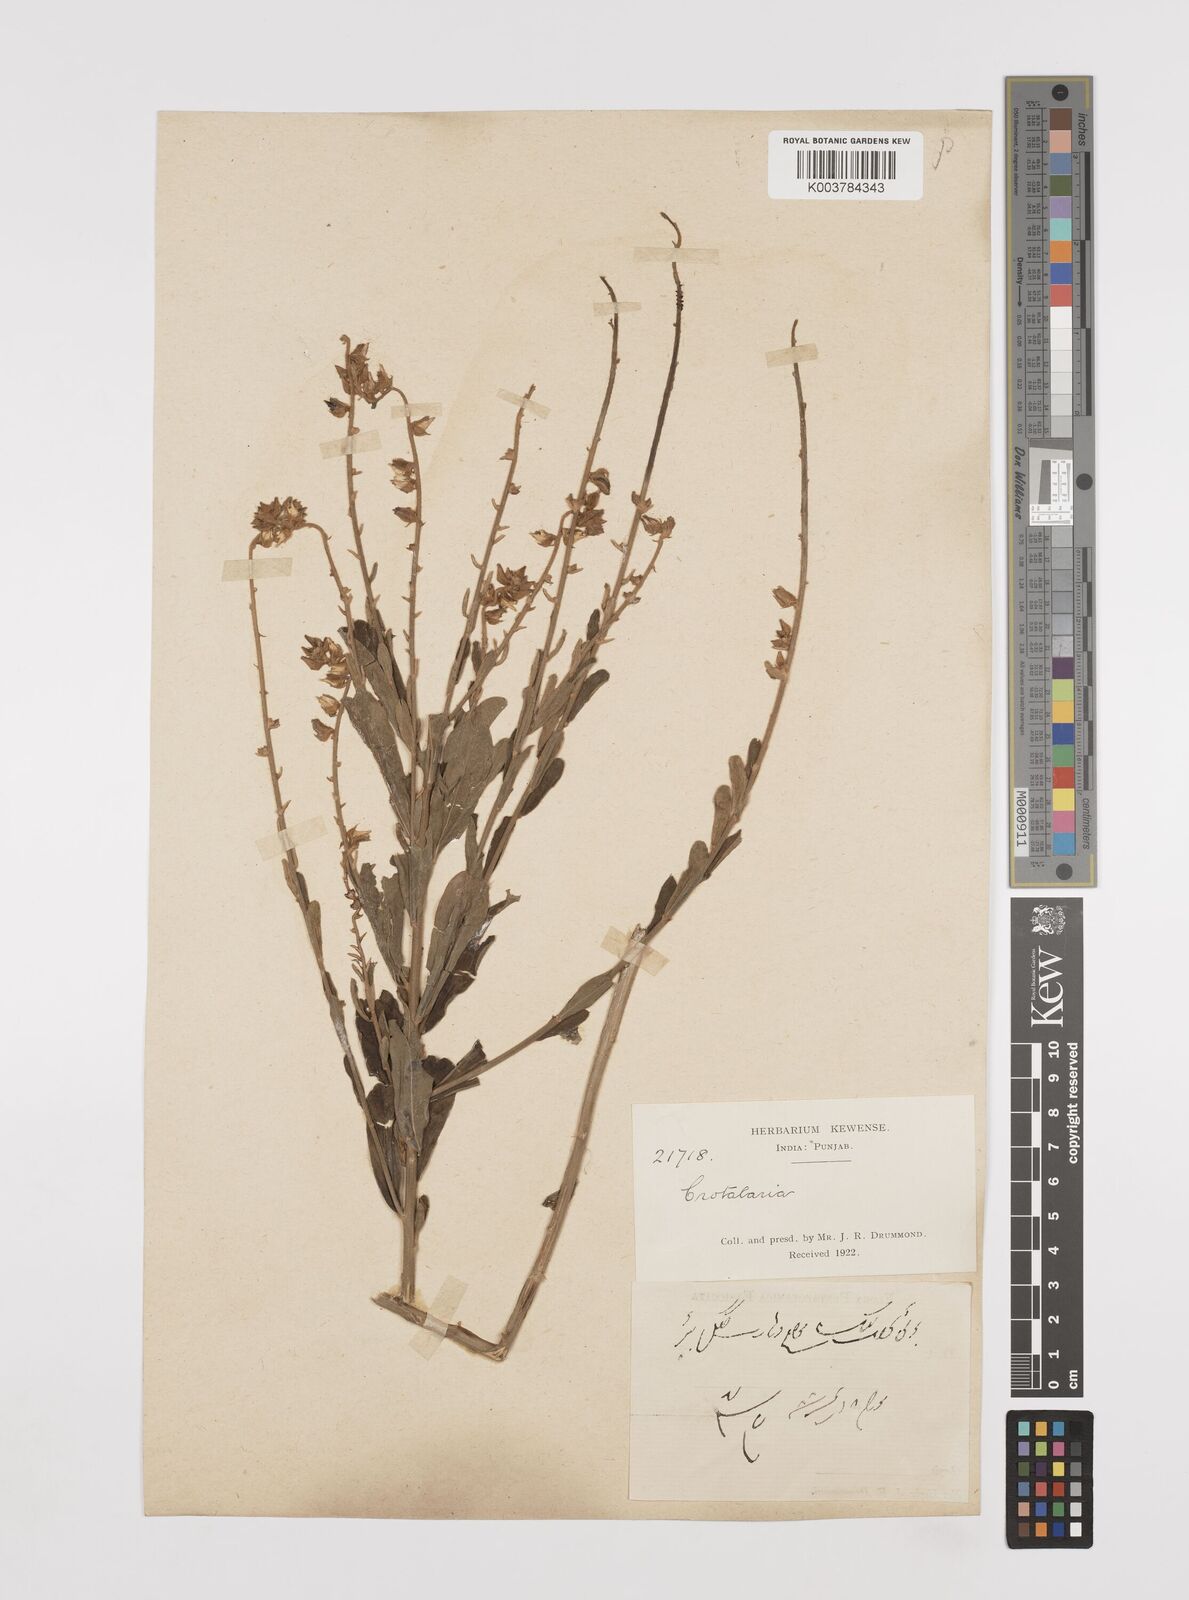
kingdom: Plantae
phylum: Tracheophyta
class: Magnoliopsida
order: Fabales
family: Fabaceae
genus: Crotalaria
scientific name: Crotalaria linifolia
